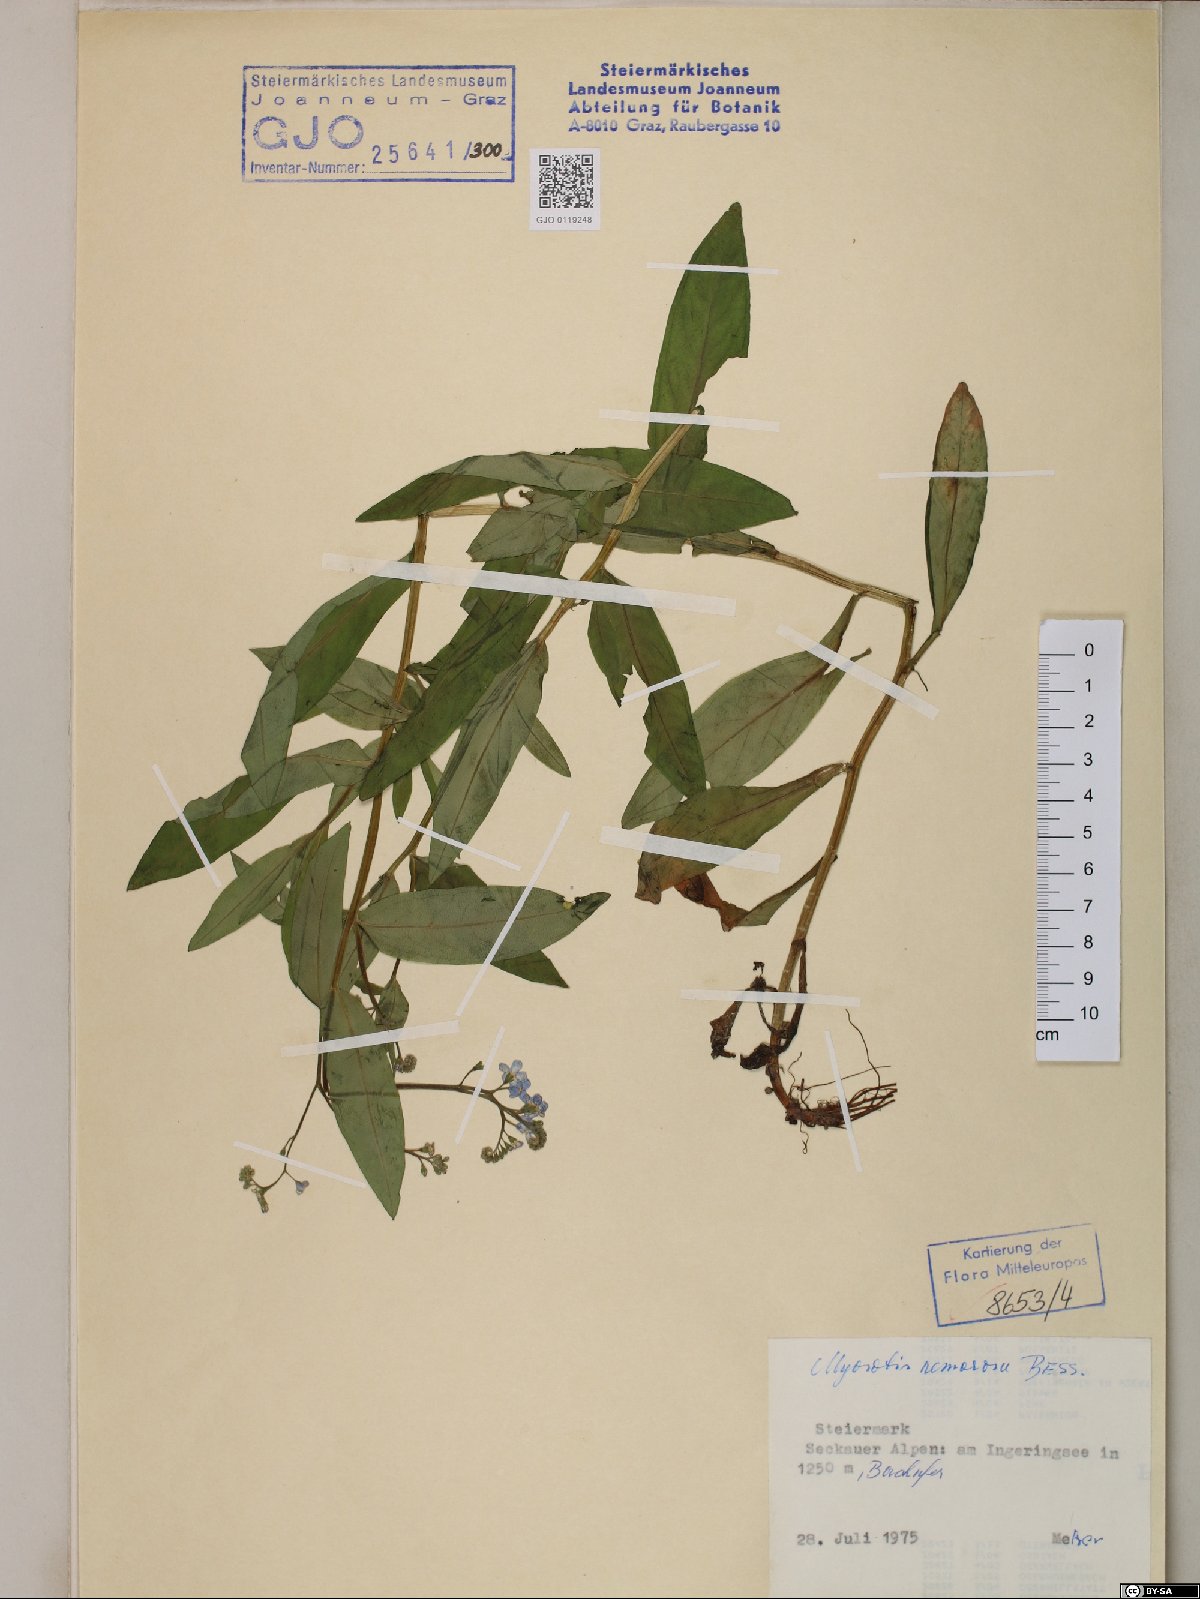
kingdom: Plantae
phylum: Tracheophyta
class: Magnoliopsida
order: Boraginales
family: Boraginaceae
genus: Myosotis
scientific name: Myosotis nemorosa
